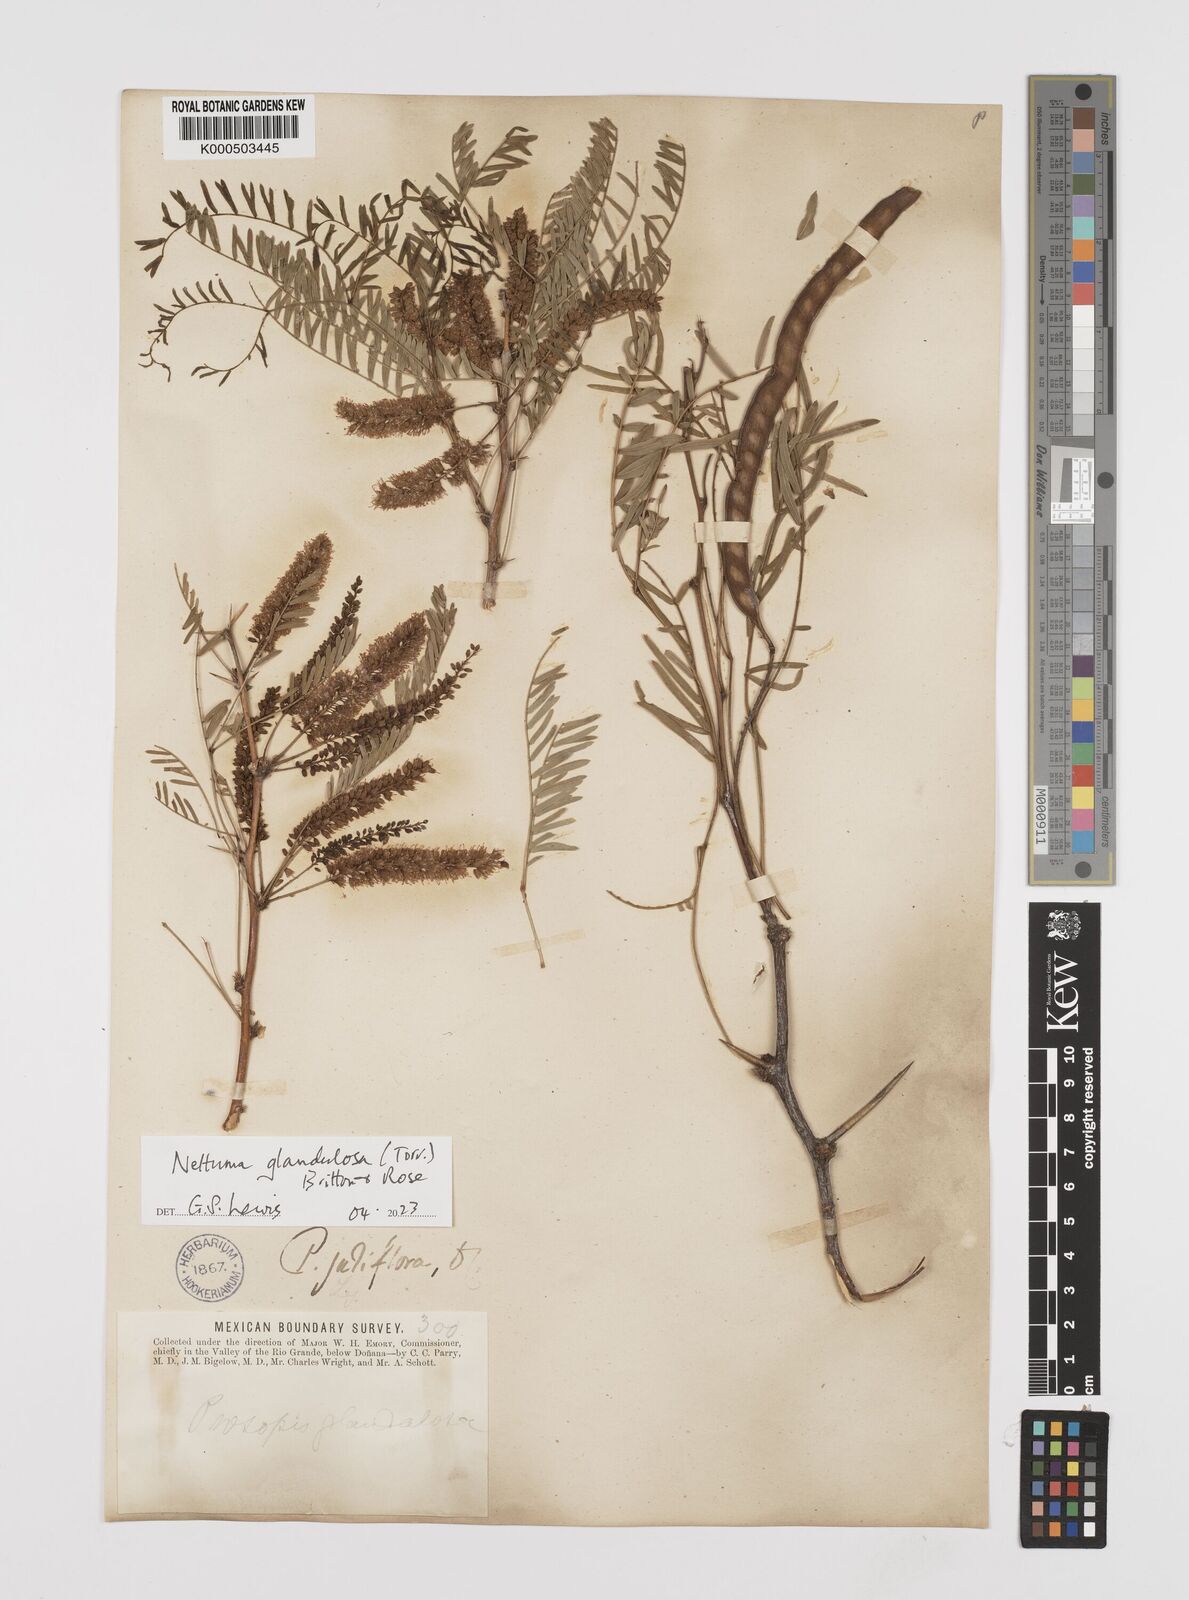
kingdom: Plantae
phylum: Tracheophyta
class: Magnoliopsida
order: Fabales
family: Fabaceae
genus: Prosopis
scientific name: Prosopis juliflora
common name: Mesquite
